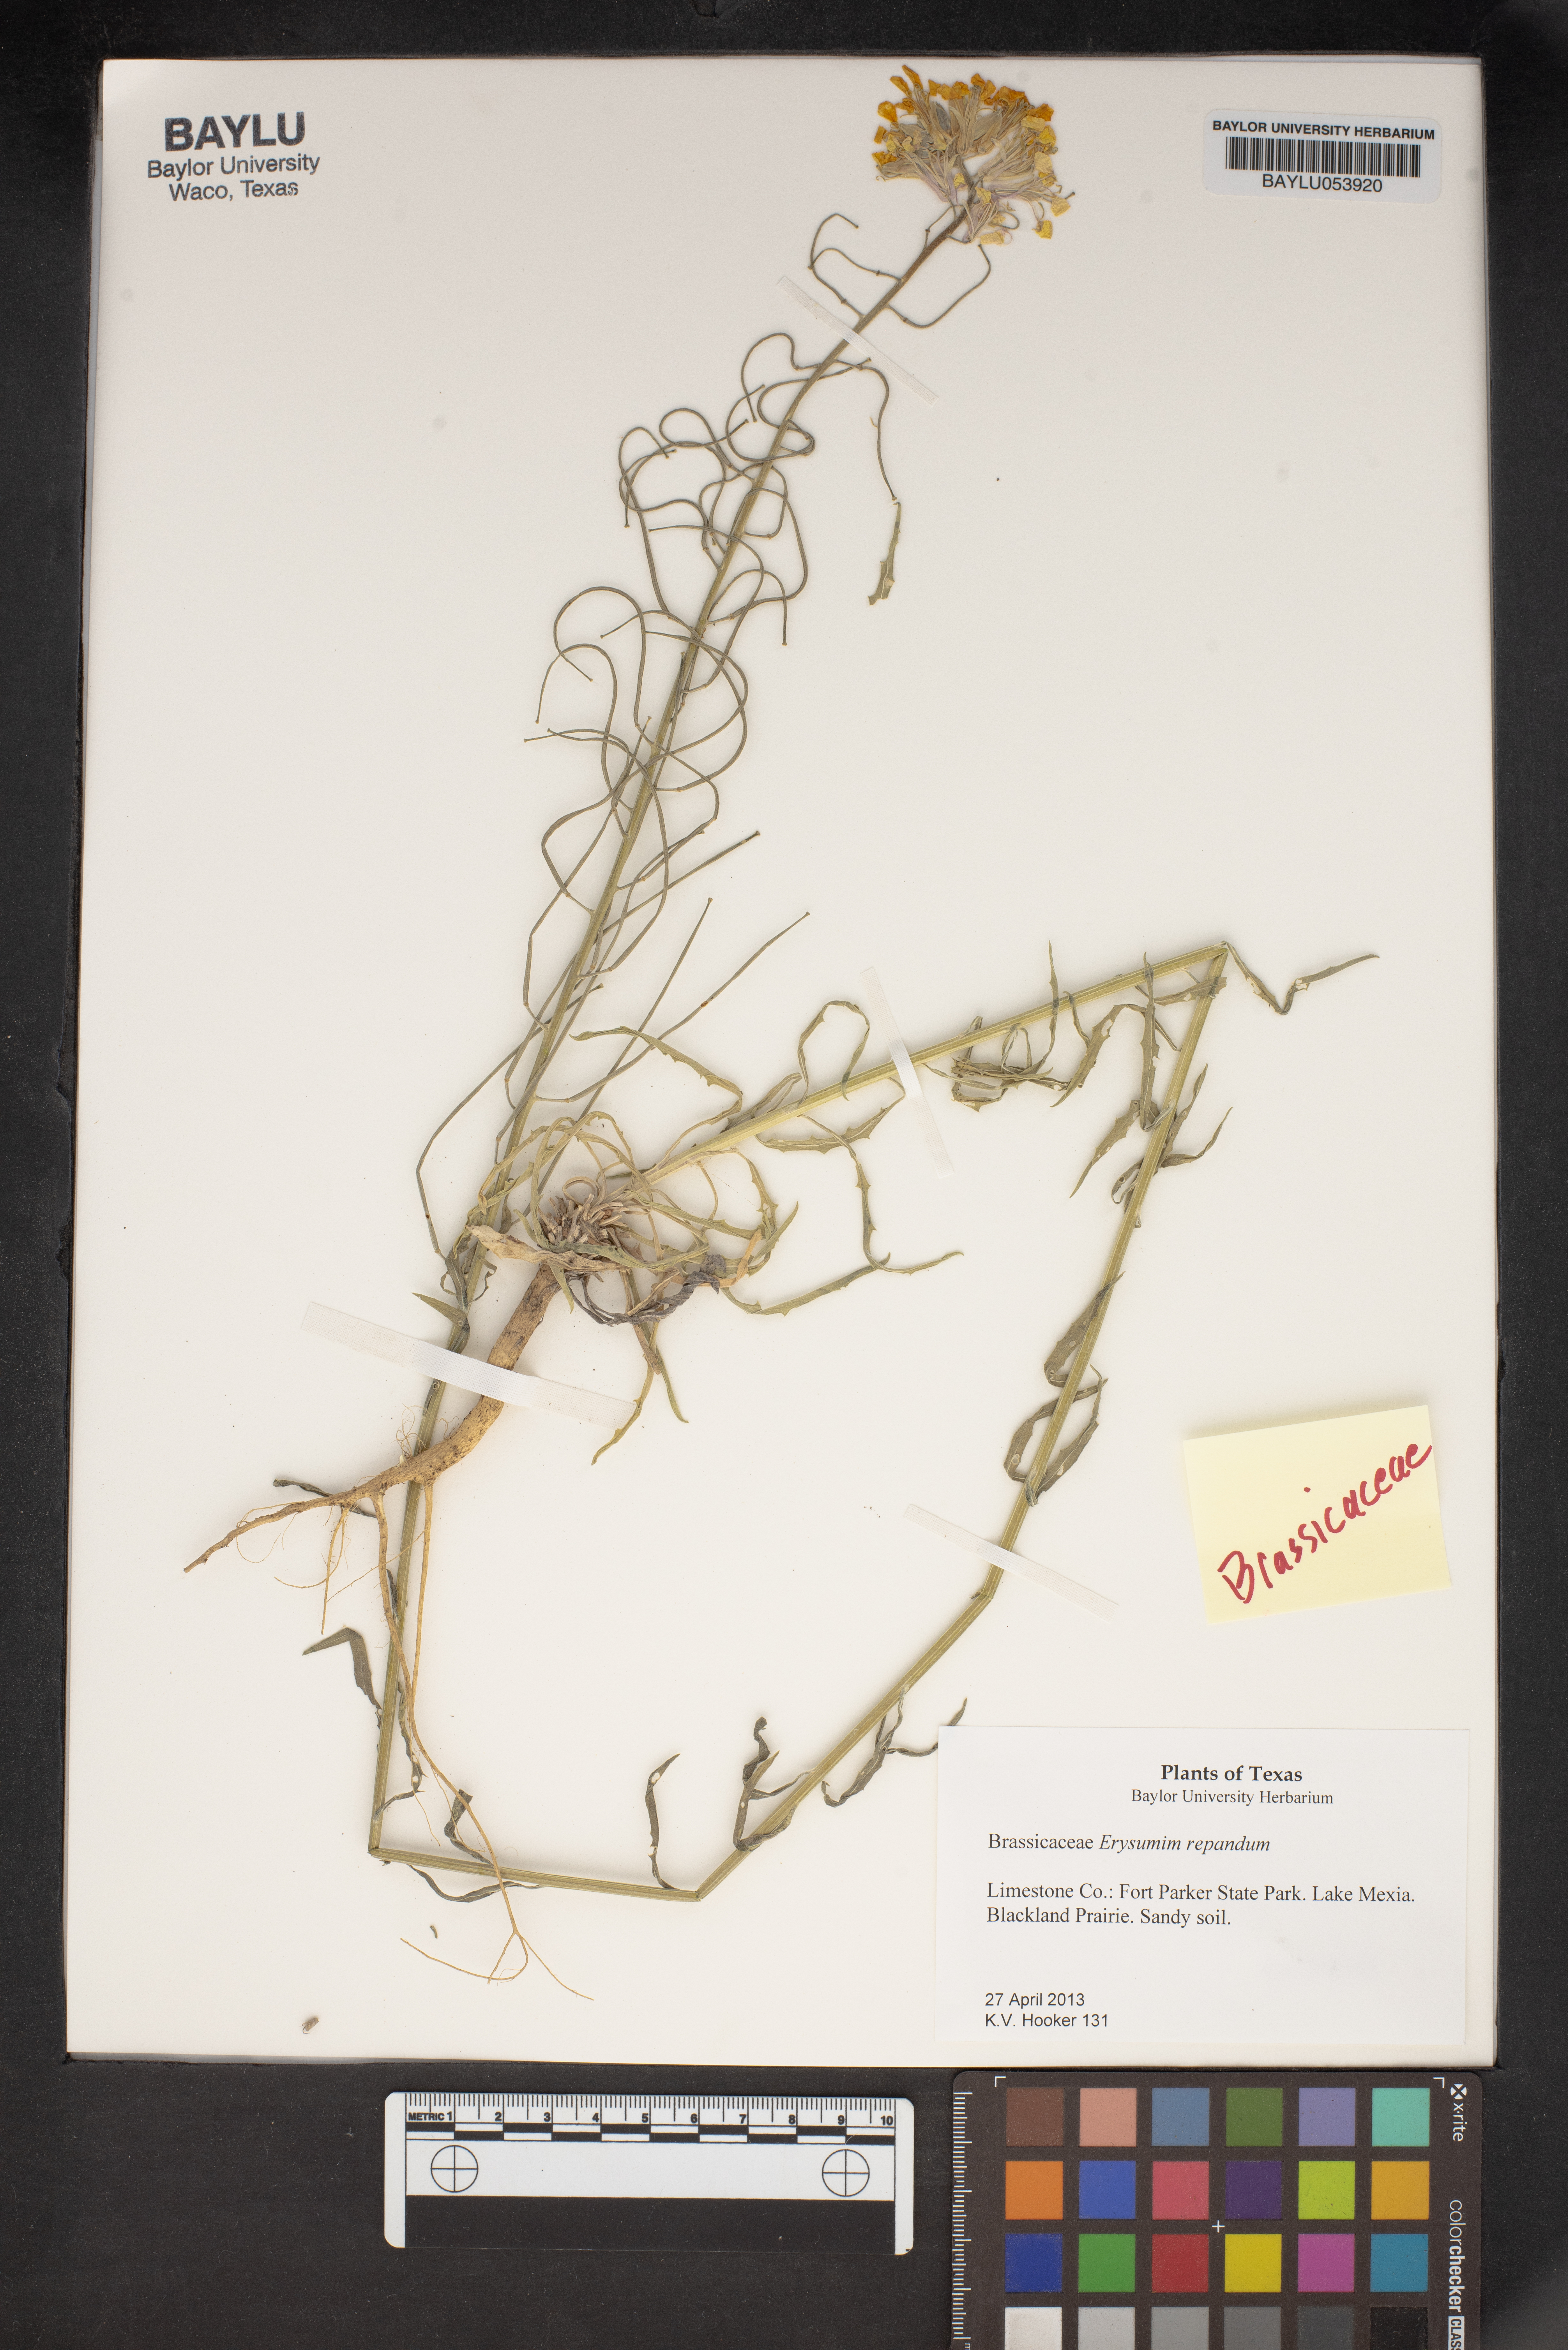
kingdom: Plantae
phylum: Tracheophyta
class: Magnoliopsida
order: Brassicales
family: Brassicaceae
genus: Erysimum
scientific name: Erysimum repandum
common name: Spreading wallflower
